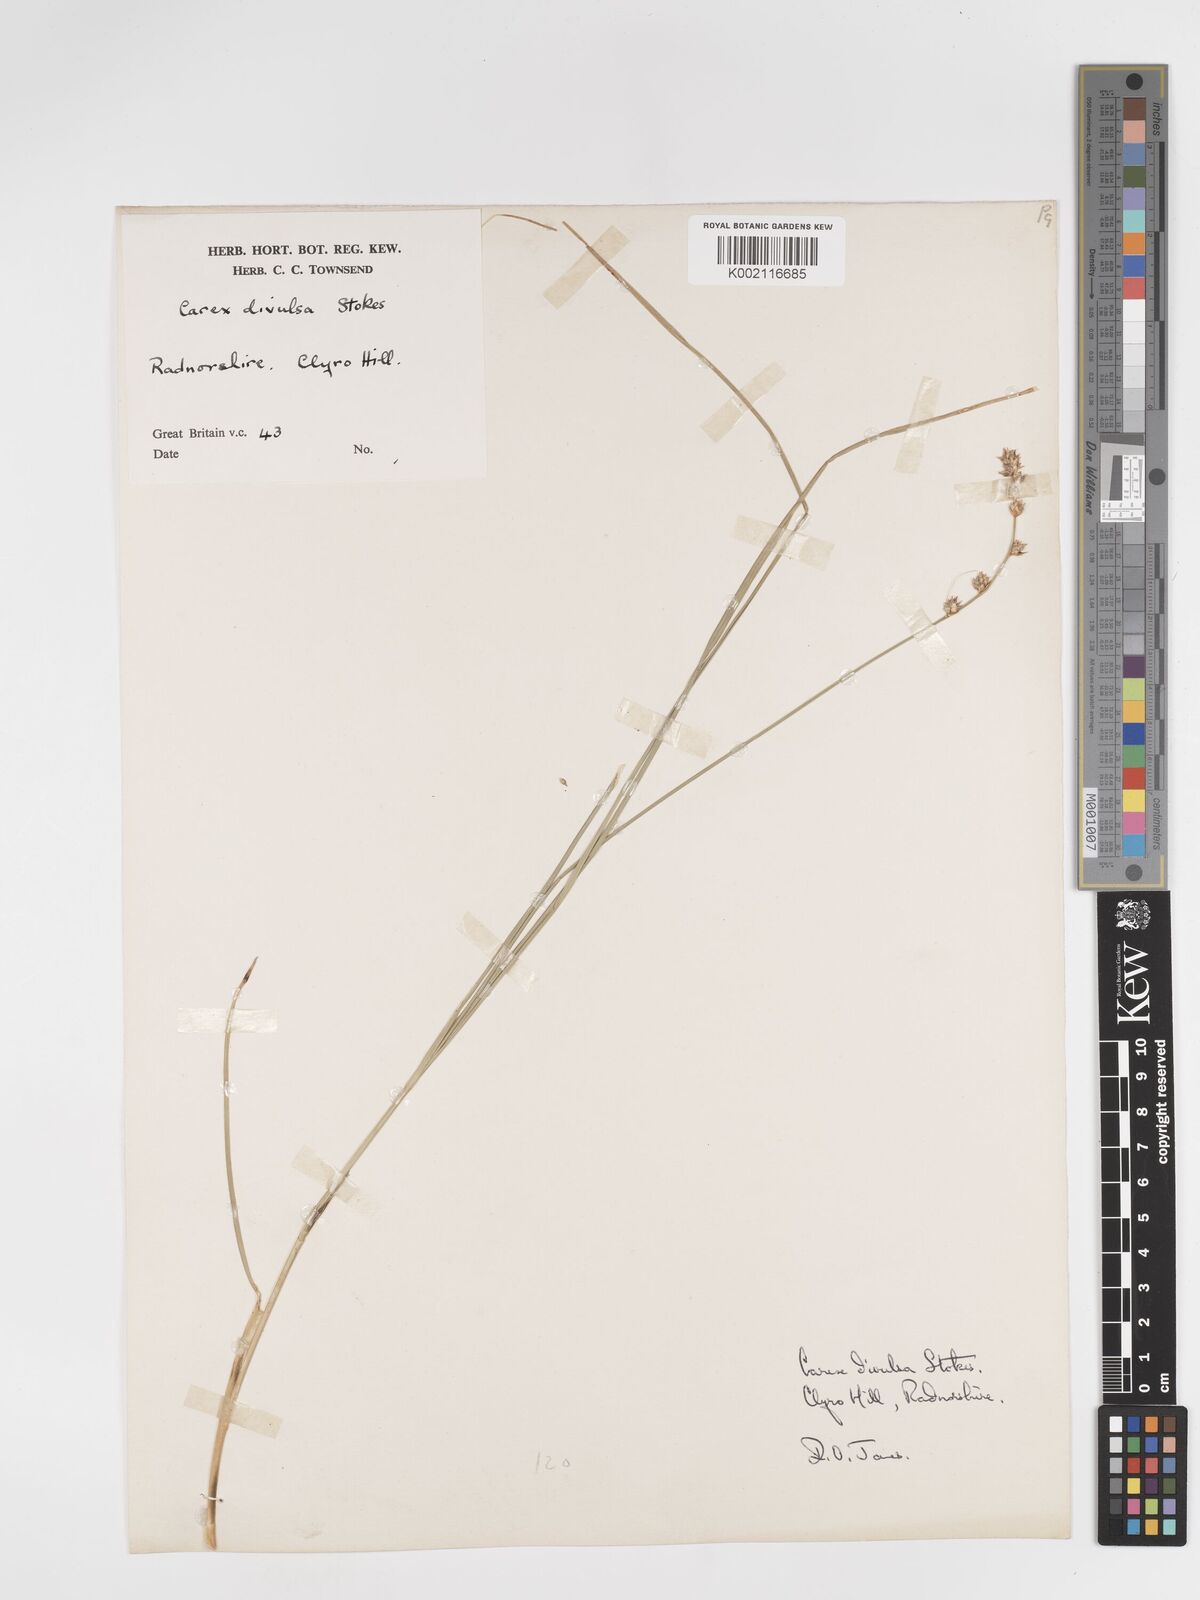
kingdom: Plantae
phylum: Tracheophyta
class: Liliopsida
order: Poales
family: Cyperaceae
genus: Carex
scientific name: Carex divulsa
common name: Grassland sedge
